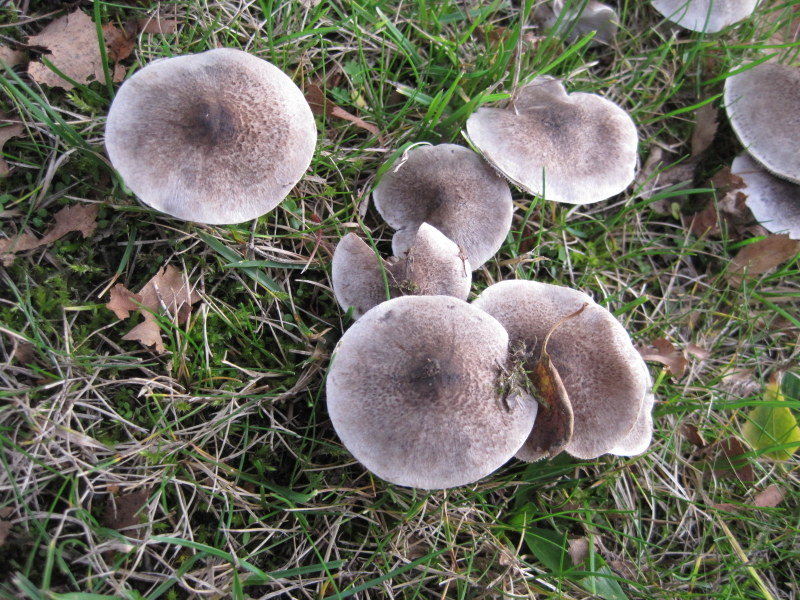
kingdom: Fungi
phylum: Basidiomycota
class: Agaricomycetes
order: Agaricales
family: Tricholomataceae
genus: Tricholoma
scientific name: Tricholoma argyraceum
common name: slør-ridderhat
